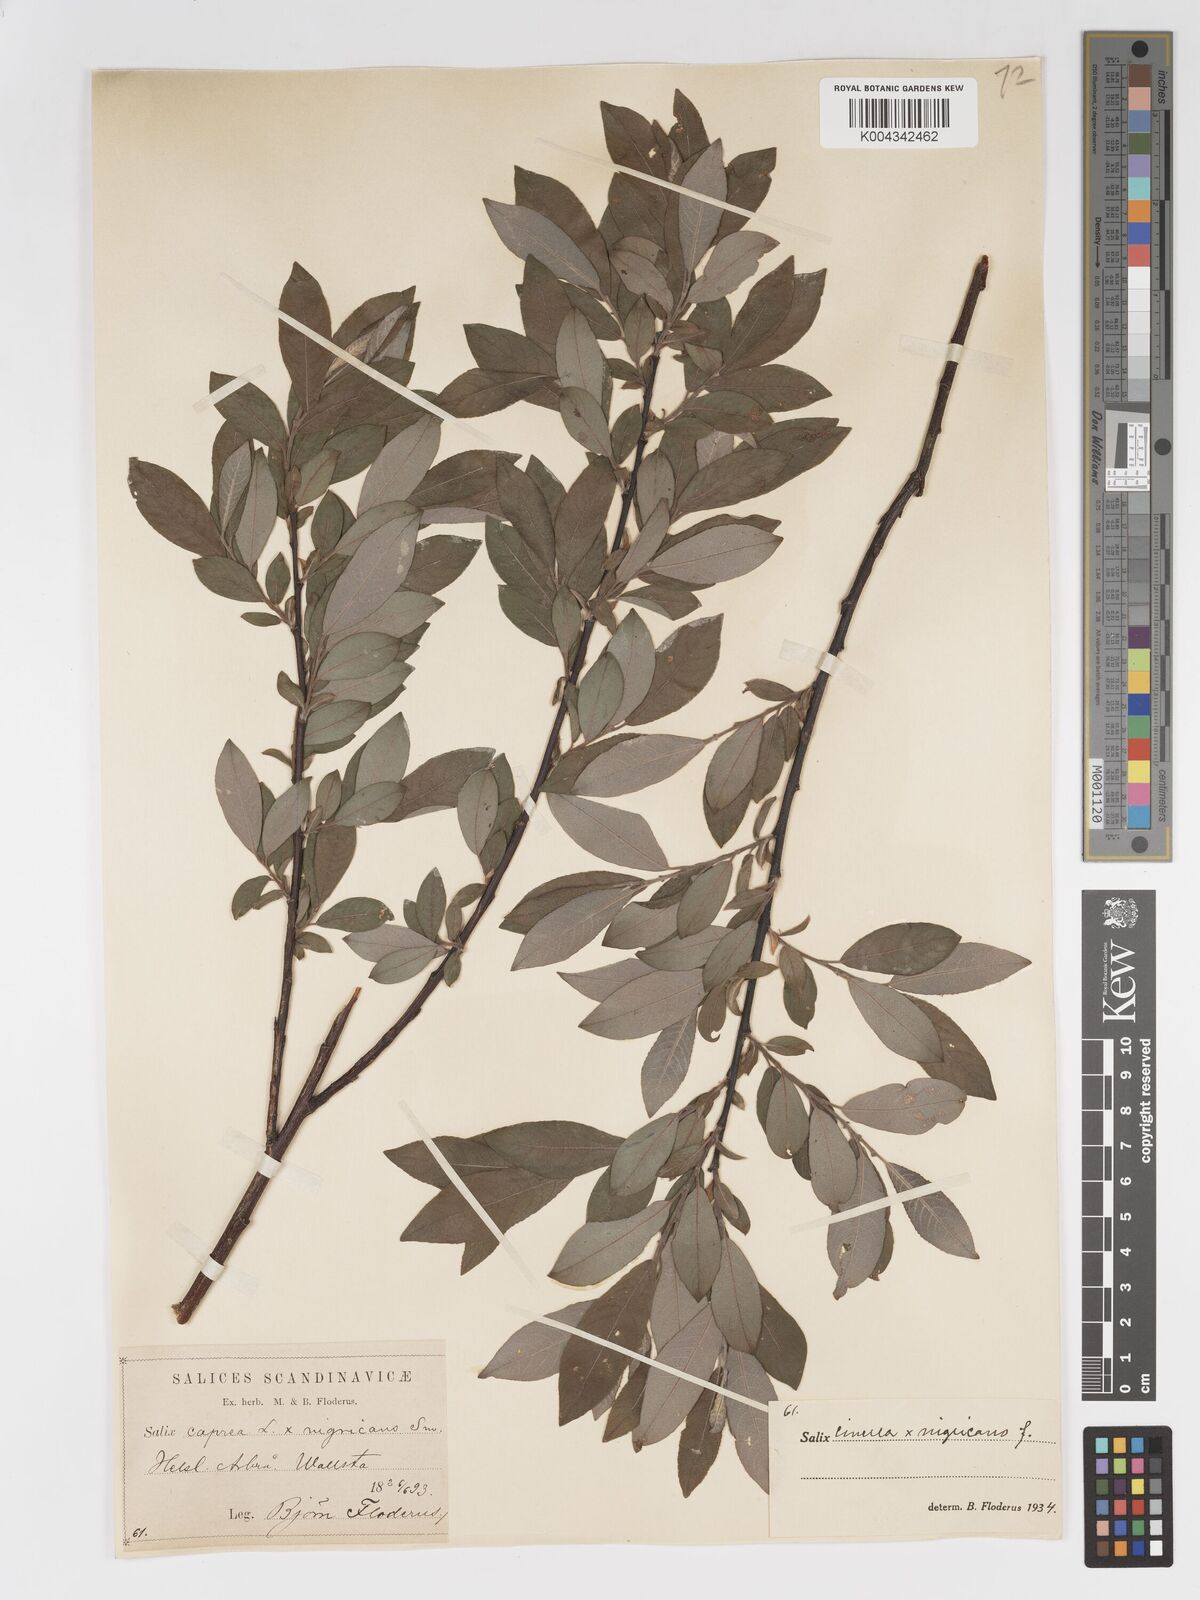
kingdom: Plantae
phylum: Tracheophyta
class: Magnoliopsida
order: Malpighiales
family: Salicaceae
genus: Salix
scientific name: Salix
